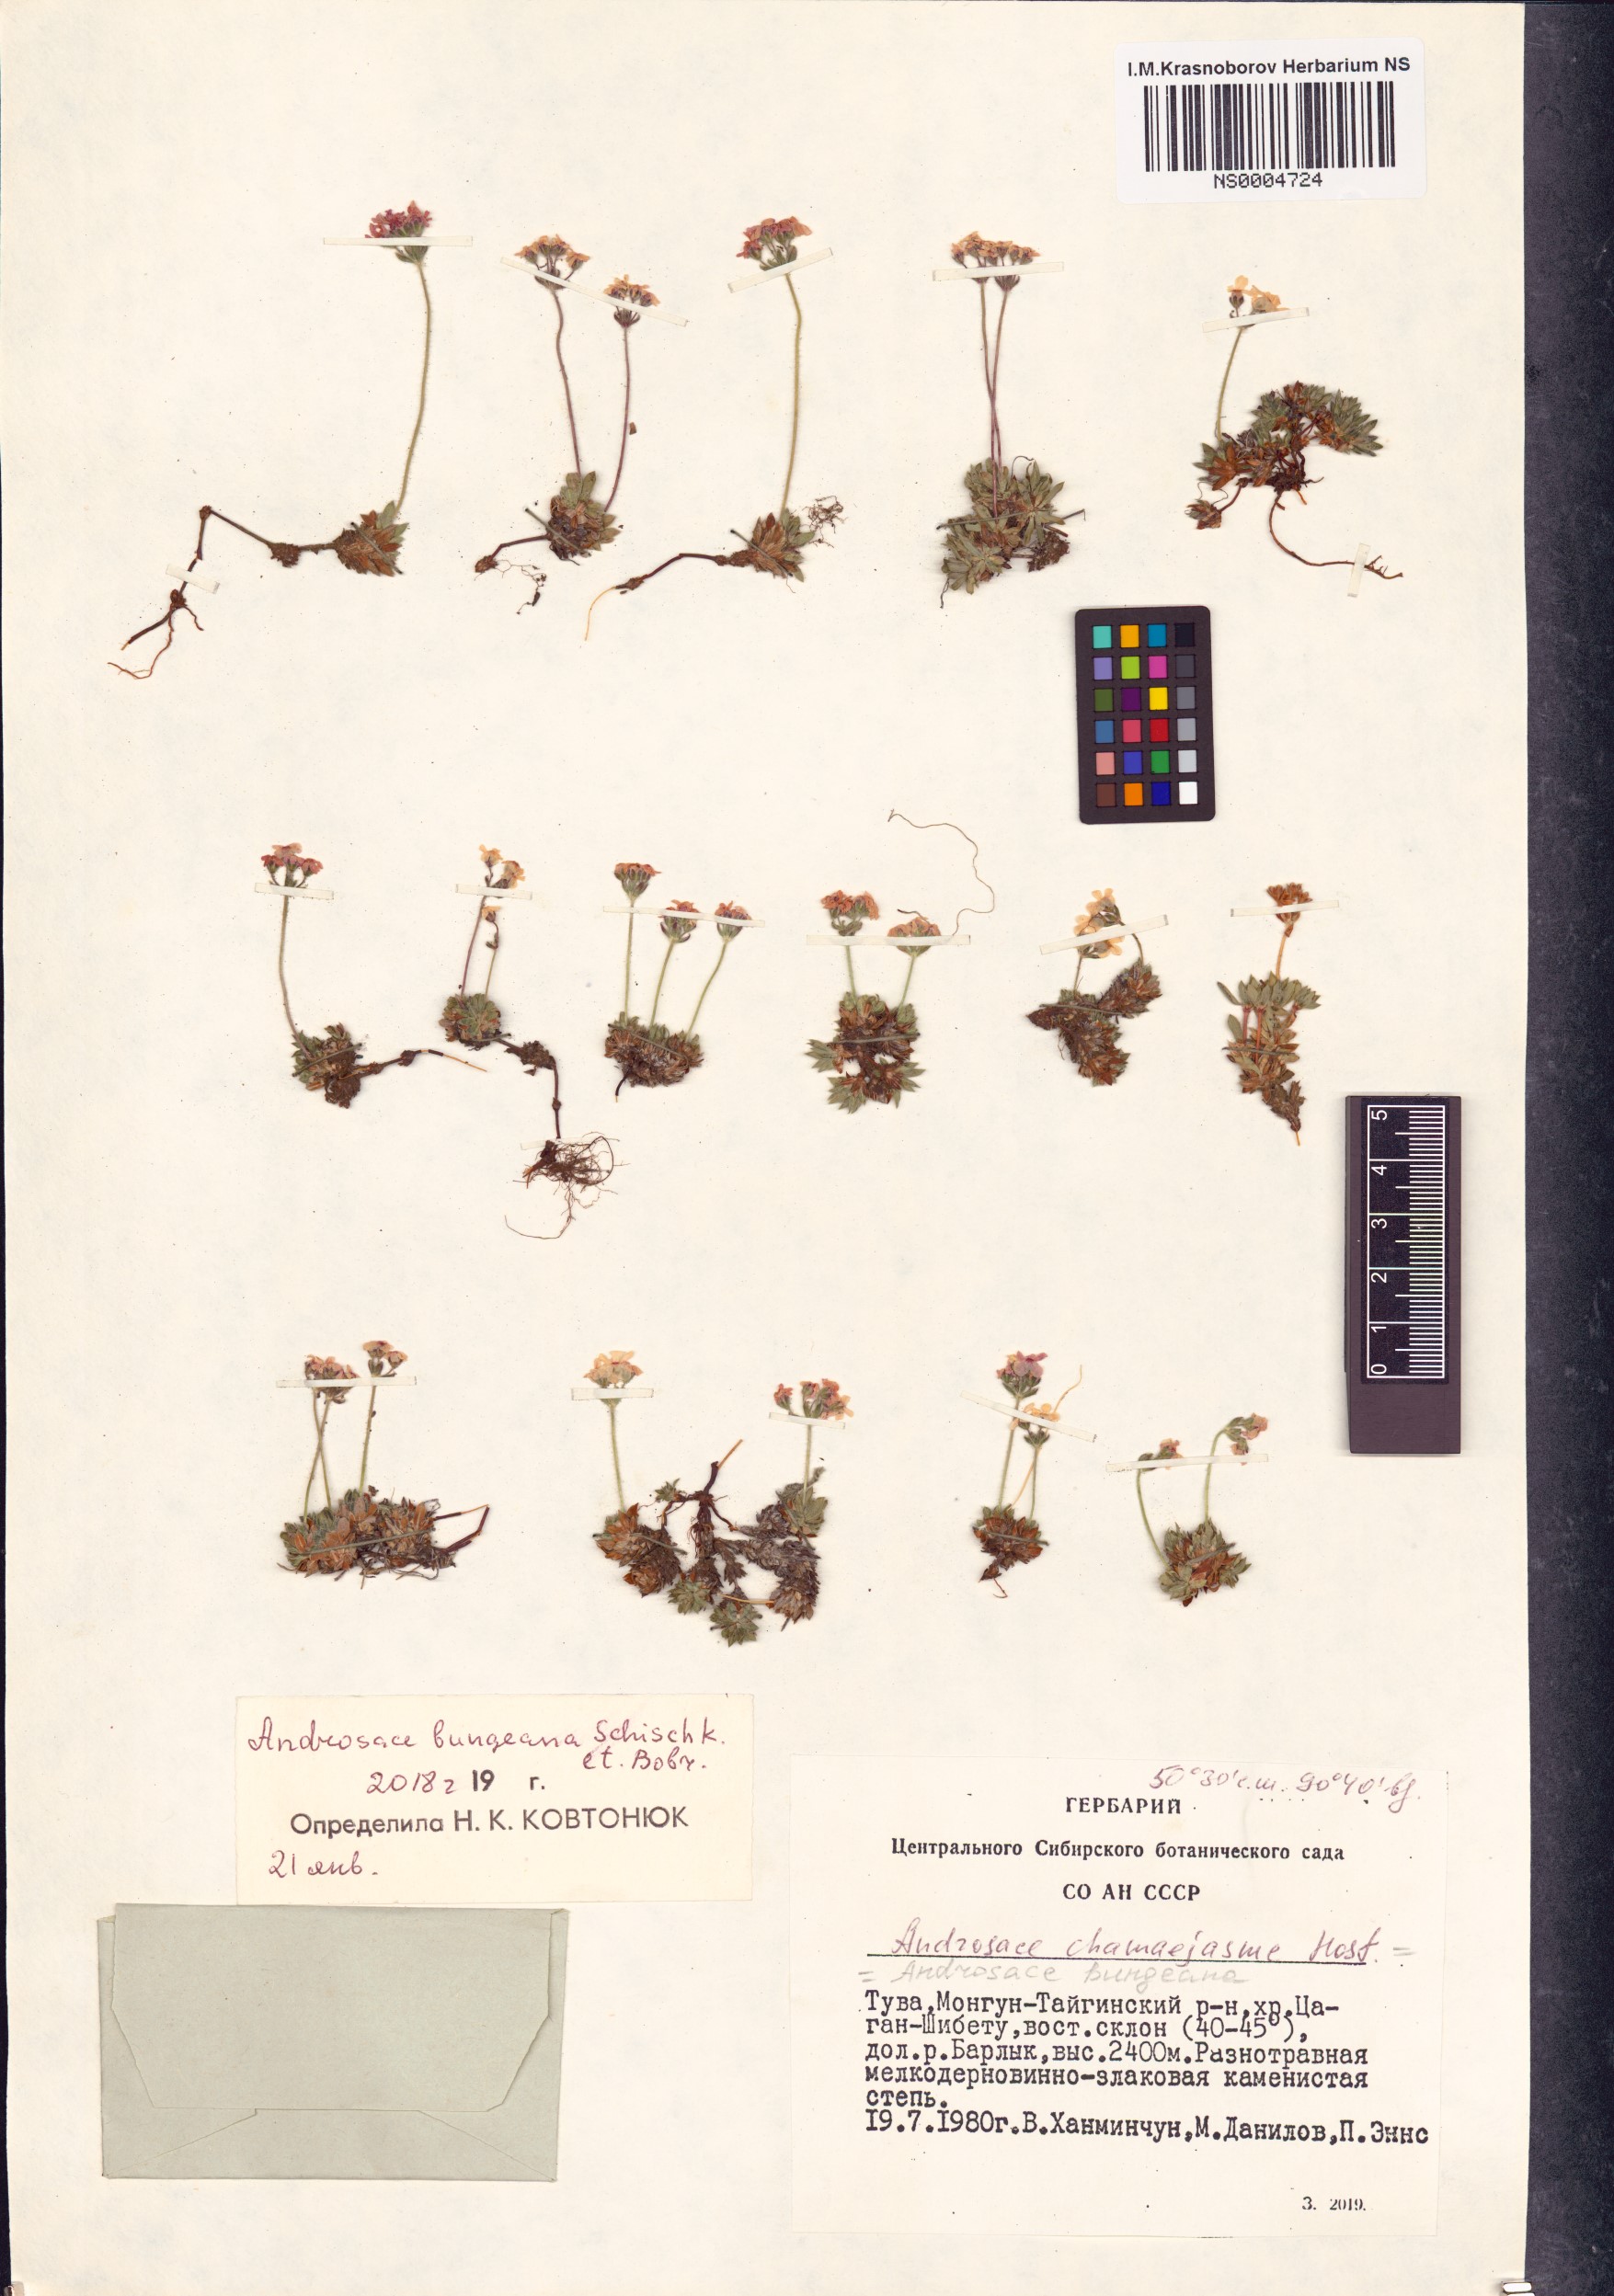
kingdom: Plantae
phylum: Tracheophyta
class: Magnoliopsida
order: Ericales
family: Primulaceae
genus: Androsace
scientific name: Androsace bungeana
